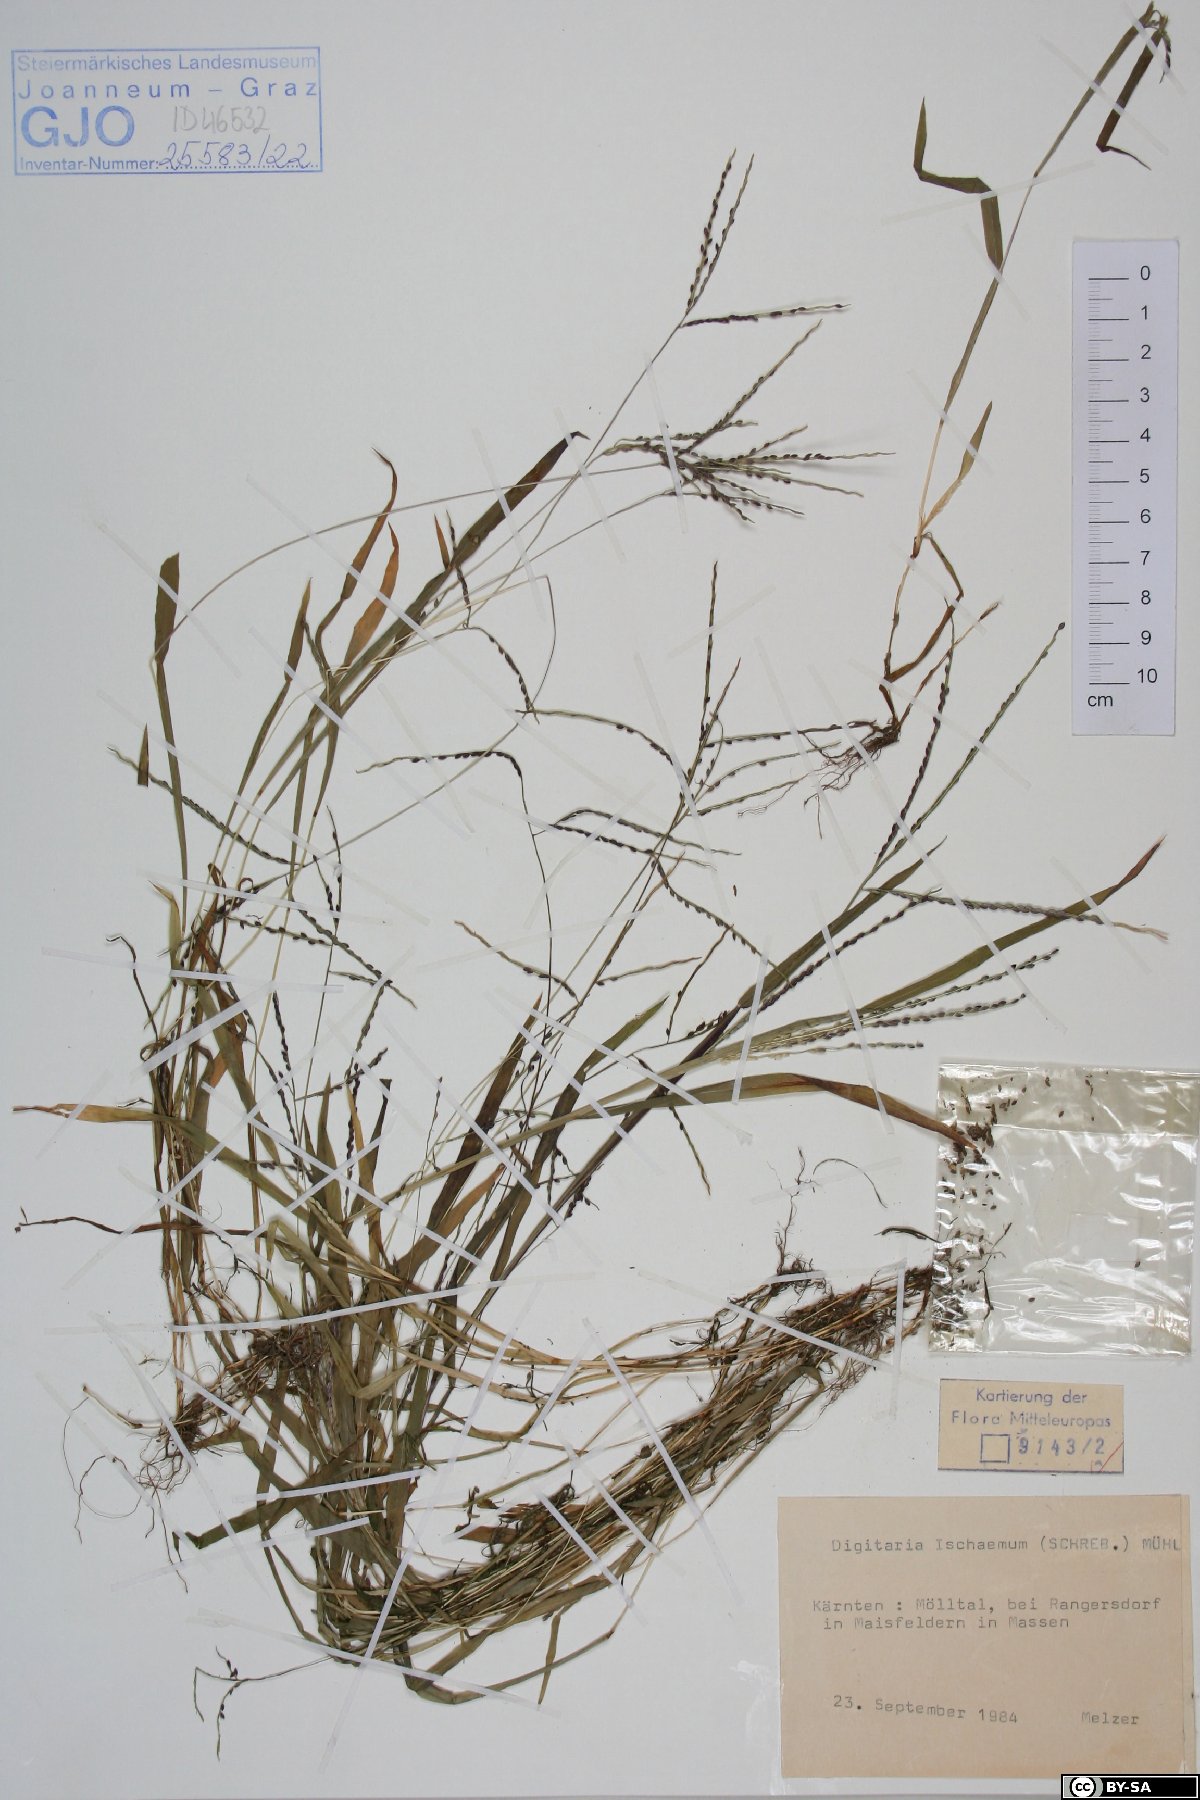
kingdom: Plantae
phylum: Tracheophyta
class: Liliopsida
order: Poales
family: Poaceae
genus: Digitaria
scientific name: Digitaria ischaemum
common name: Smooth crabgrass
